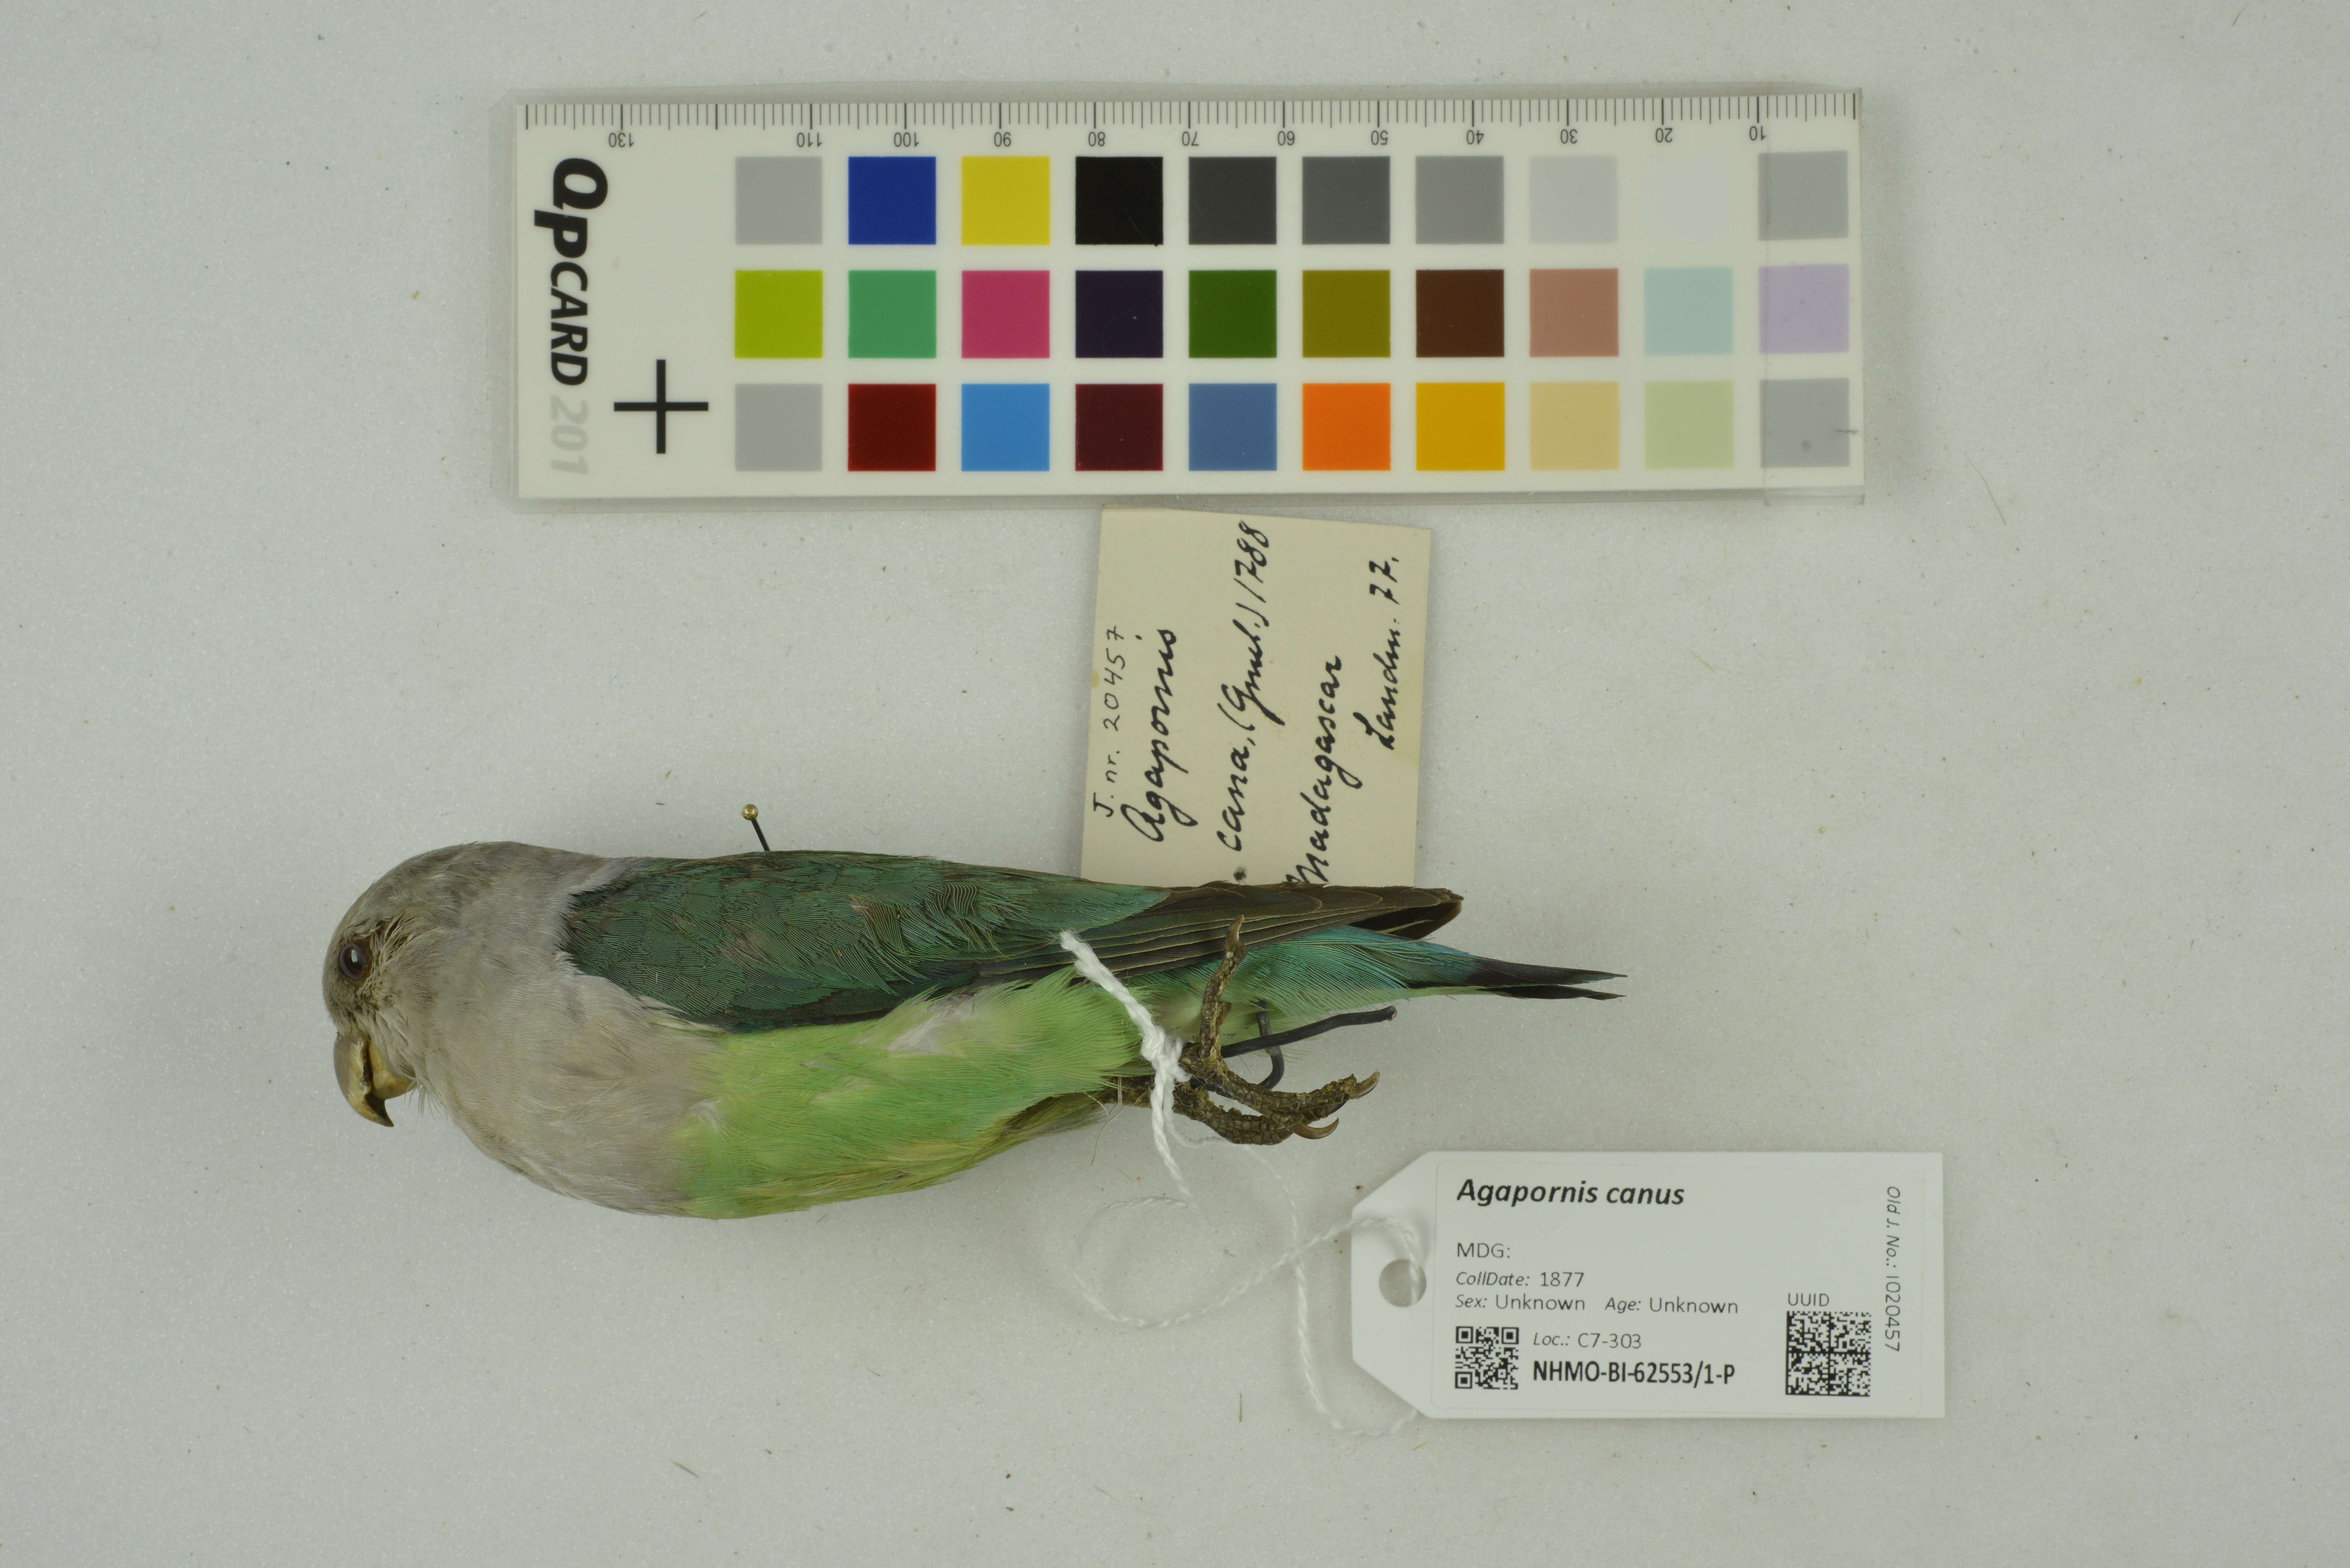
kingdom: Animalia
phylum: Chordata
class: Aves
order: Psittaciformes
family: Psittacidae
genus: Agapornis
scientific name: Agapornis canus
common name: Grey-headed lovebird
